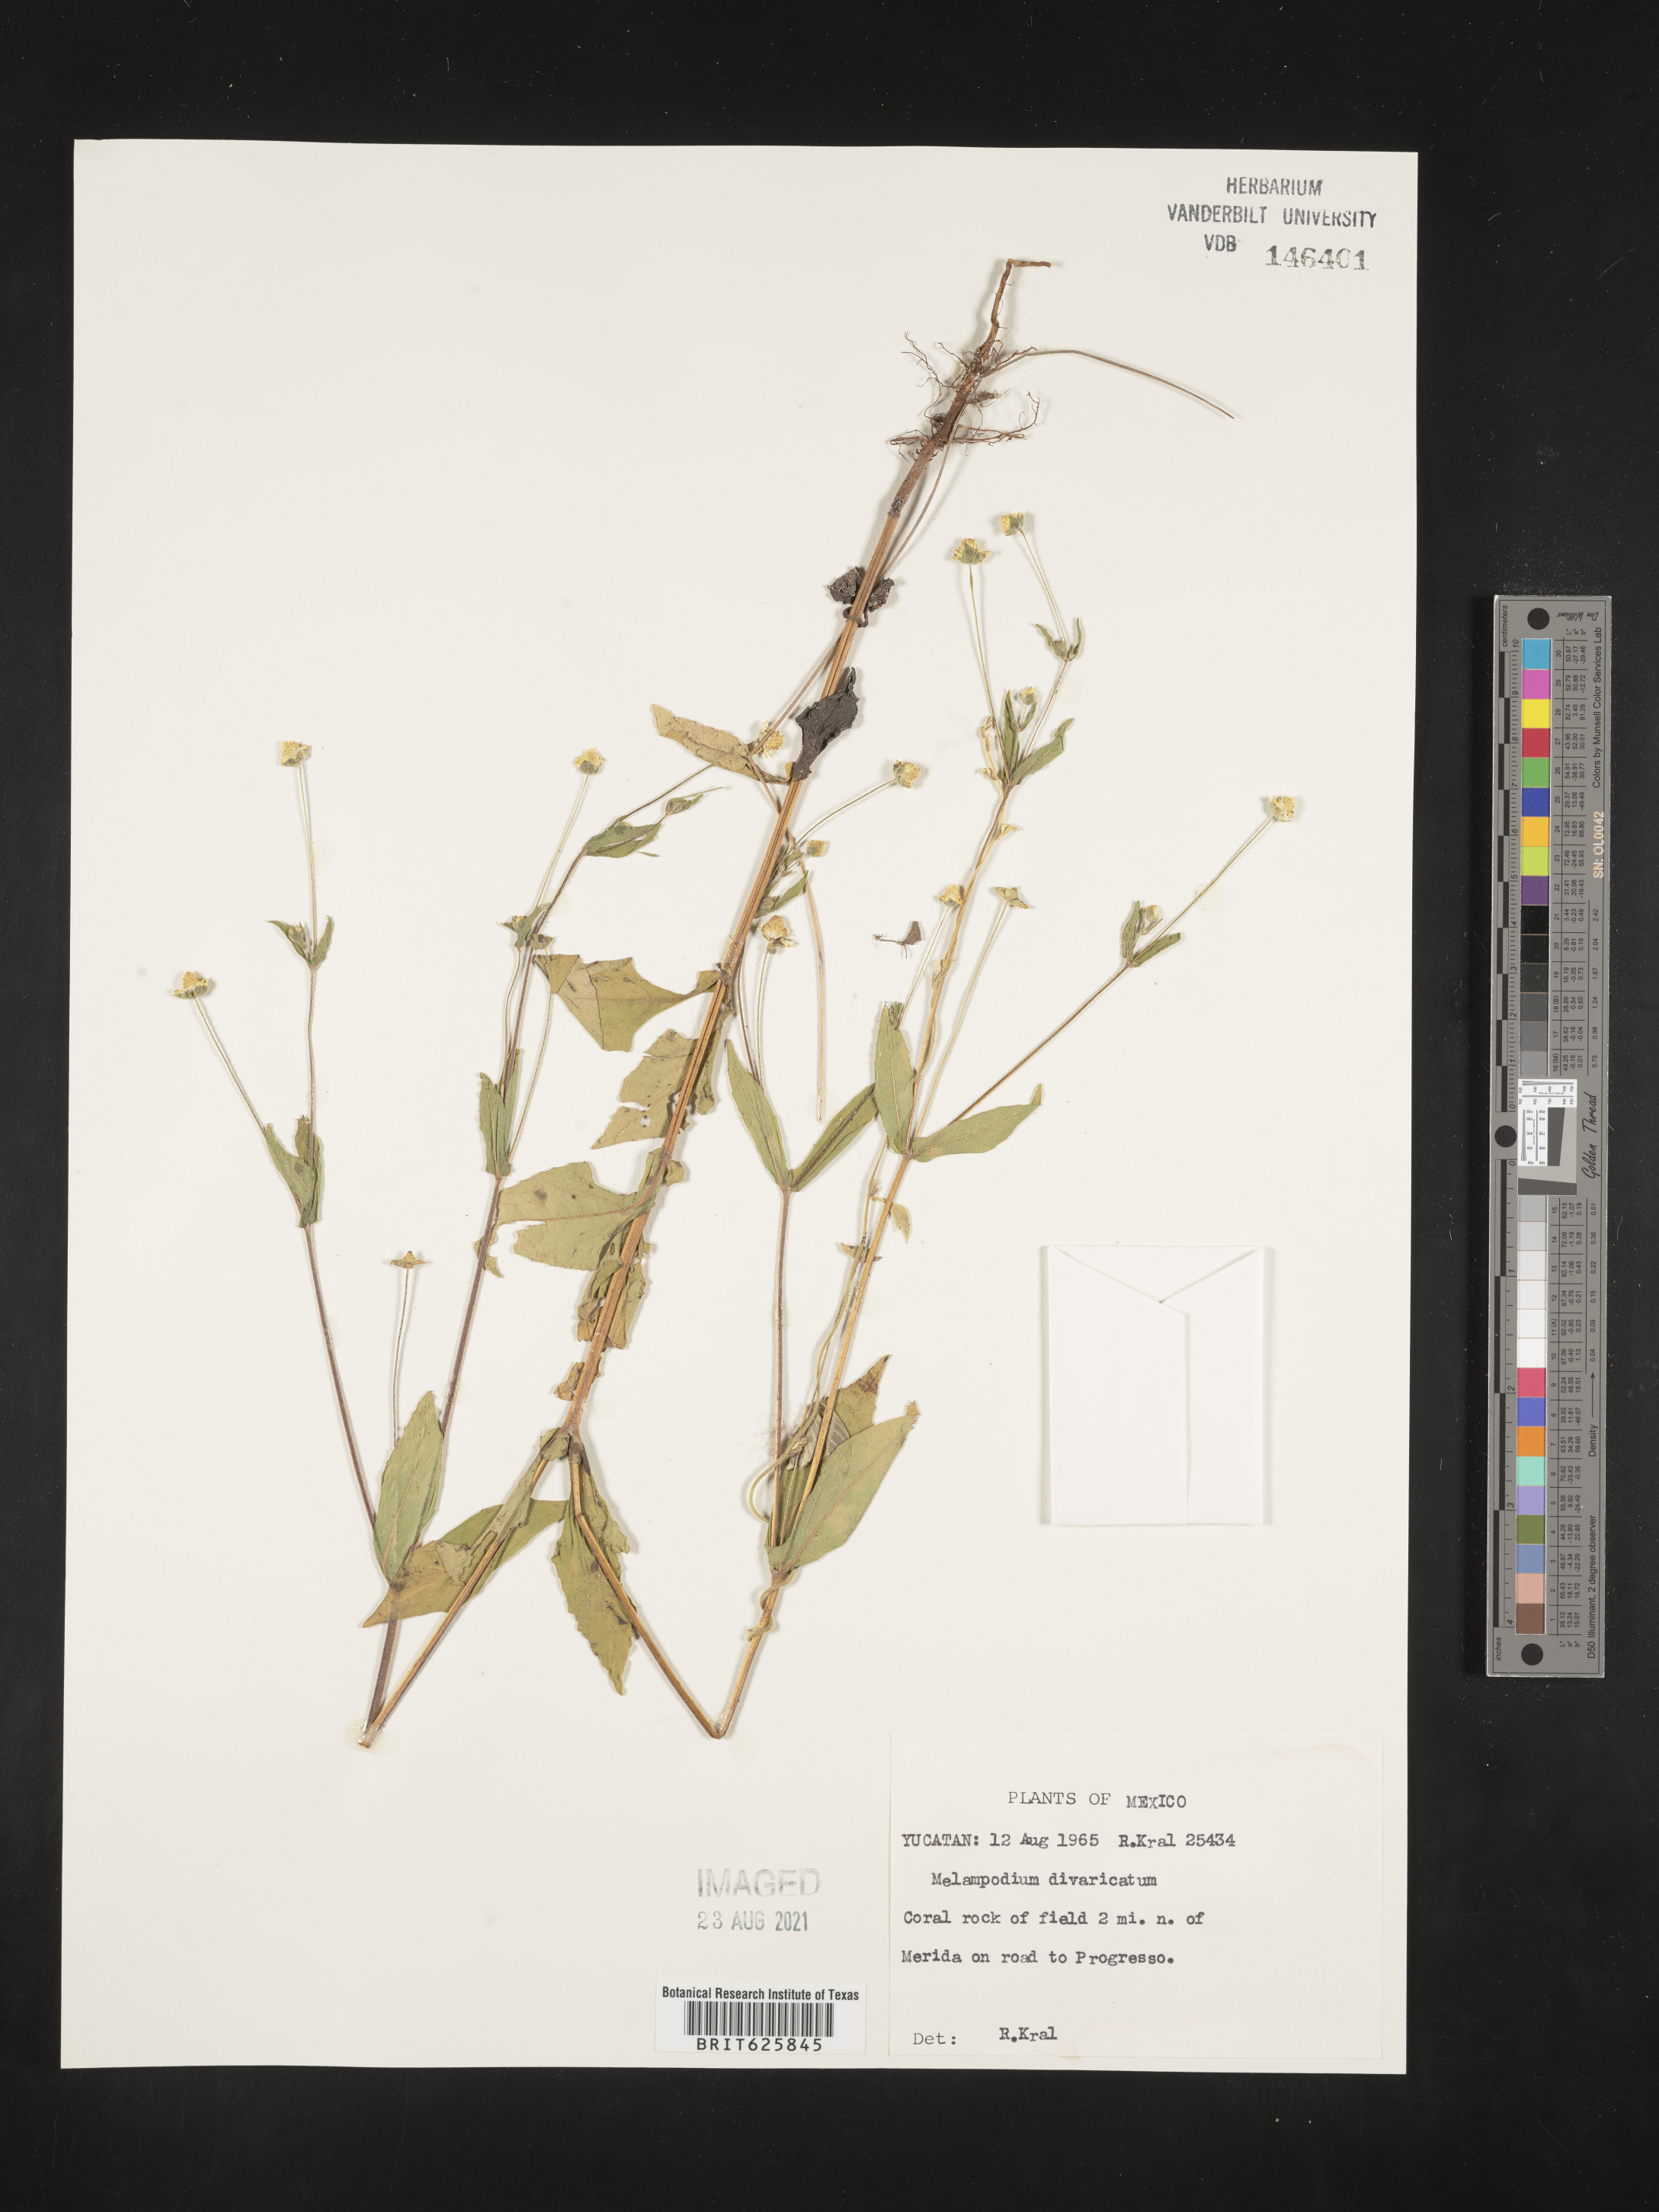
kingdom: Plantae
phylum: Tracheophyta
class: Magnoliopsida
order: Asterales
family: Asteraceae
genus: Melampodium
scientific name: Melampodium
